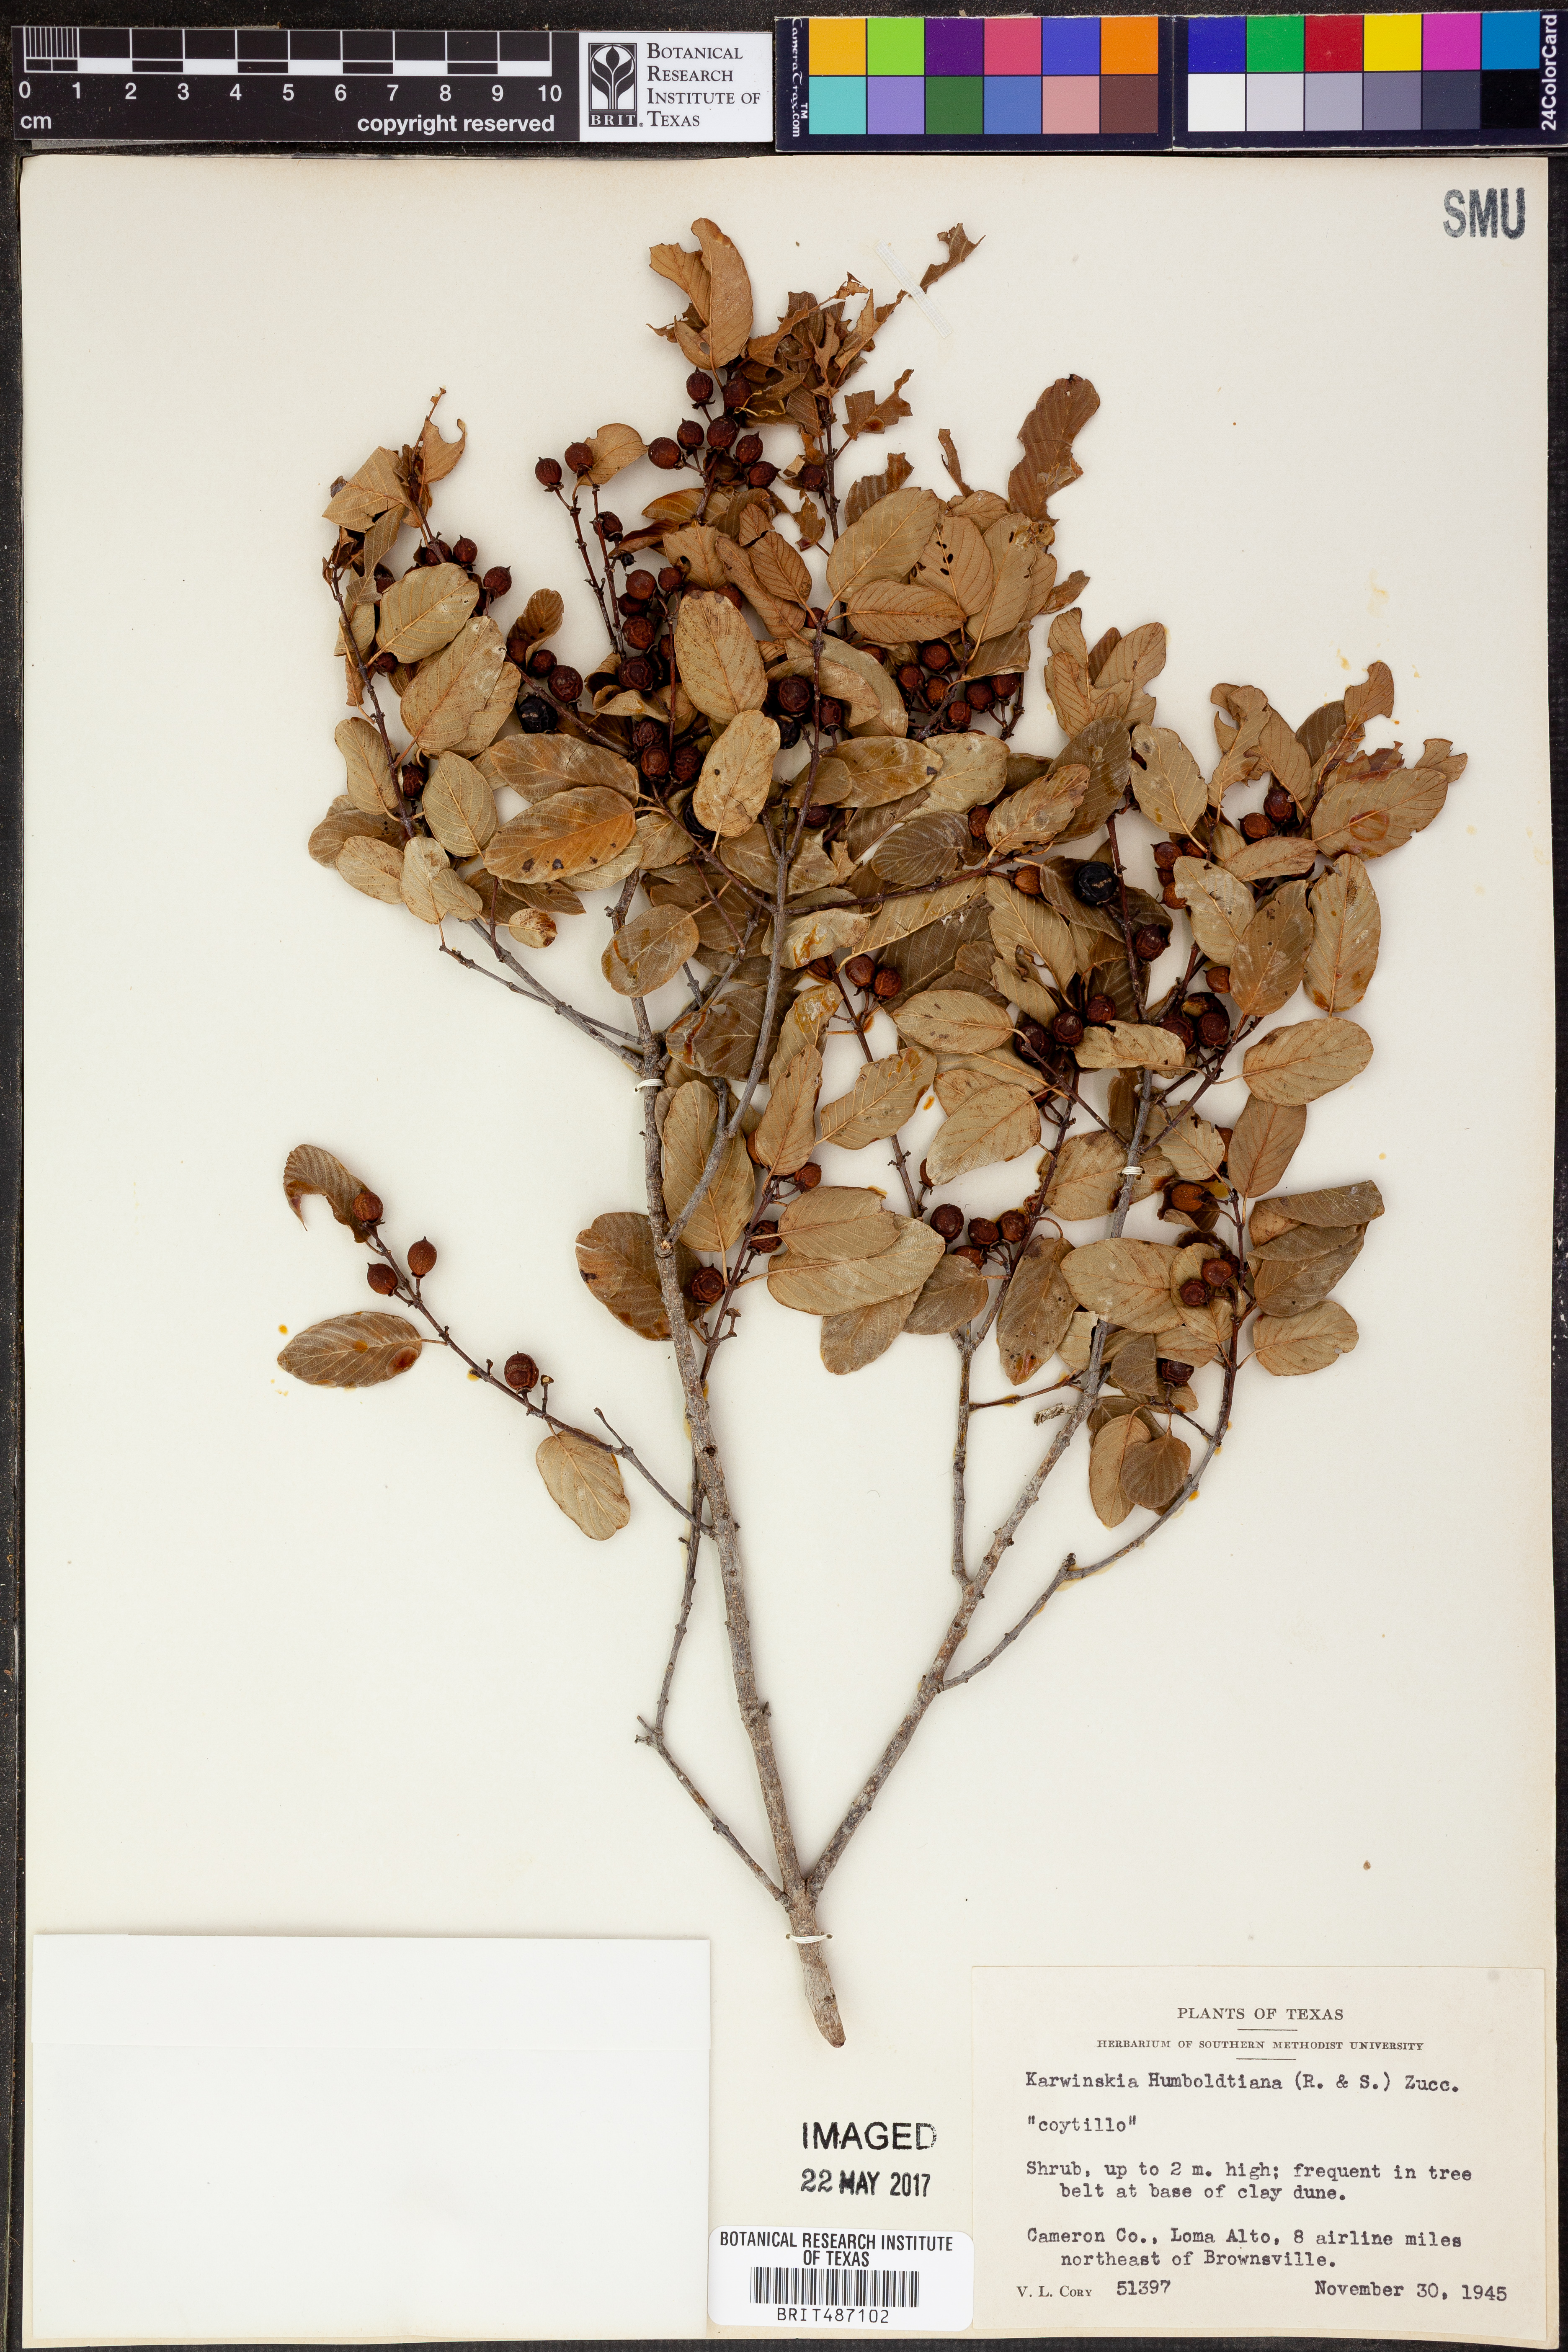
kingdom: Plantae
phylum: Tracheophyta
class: Magnoliopsida
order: Rosales
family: Rhamnaceae
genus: Karwinskia
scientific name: Karwinskia humboldtiana
